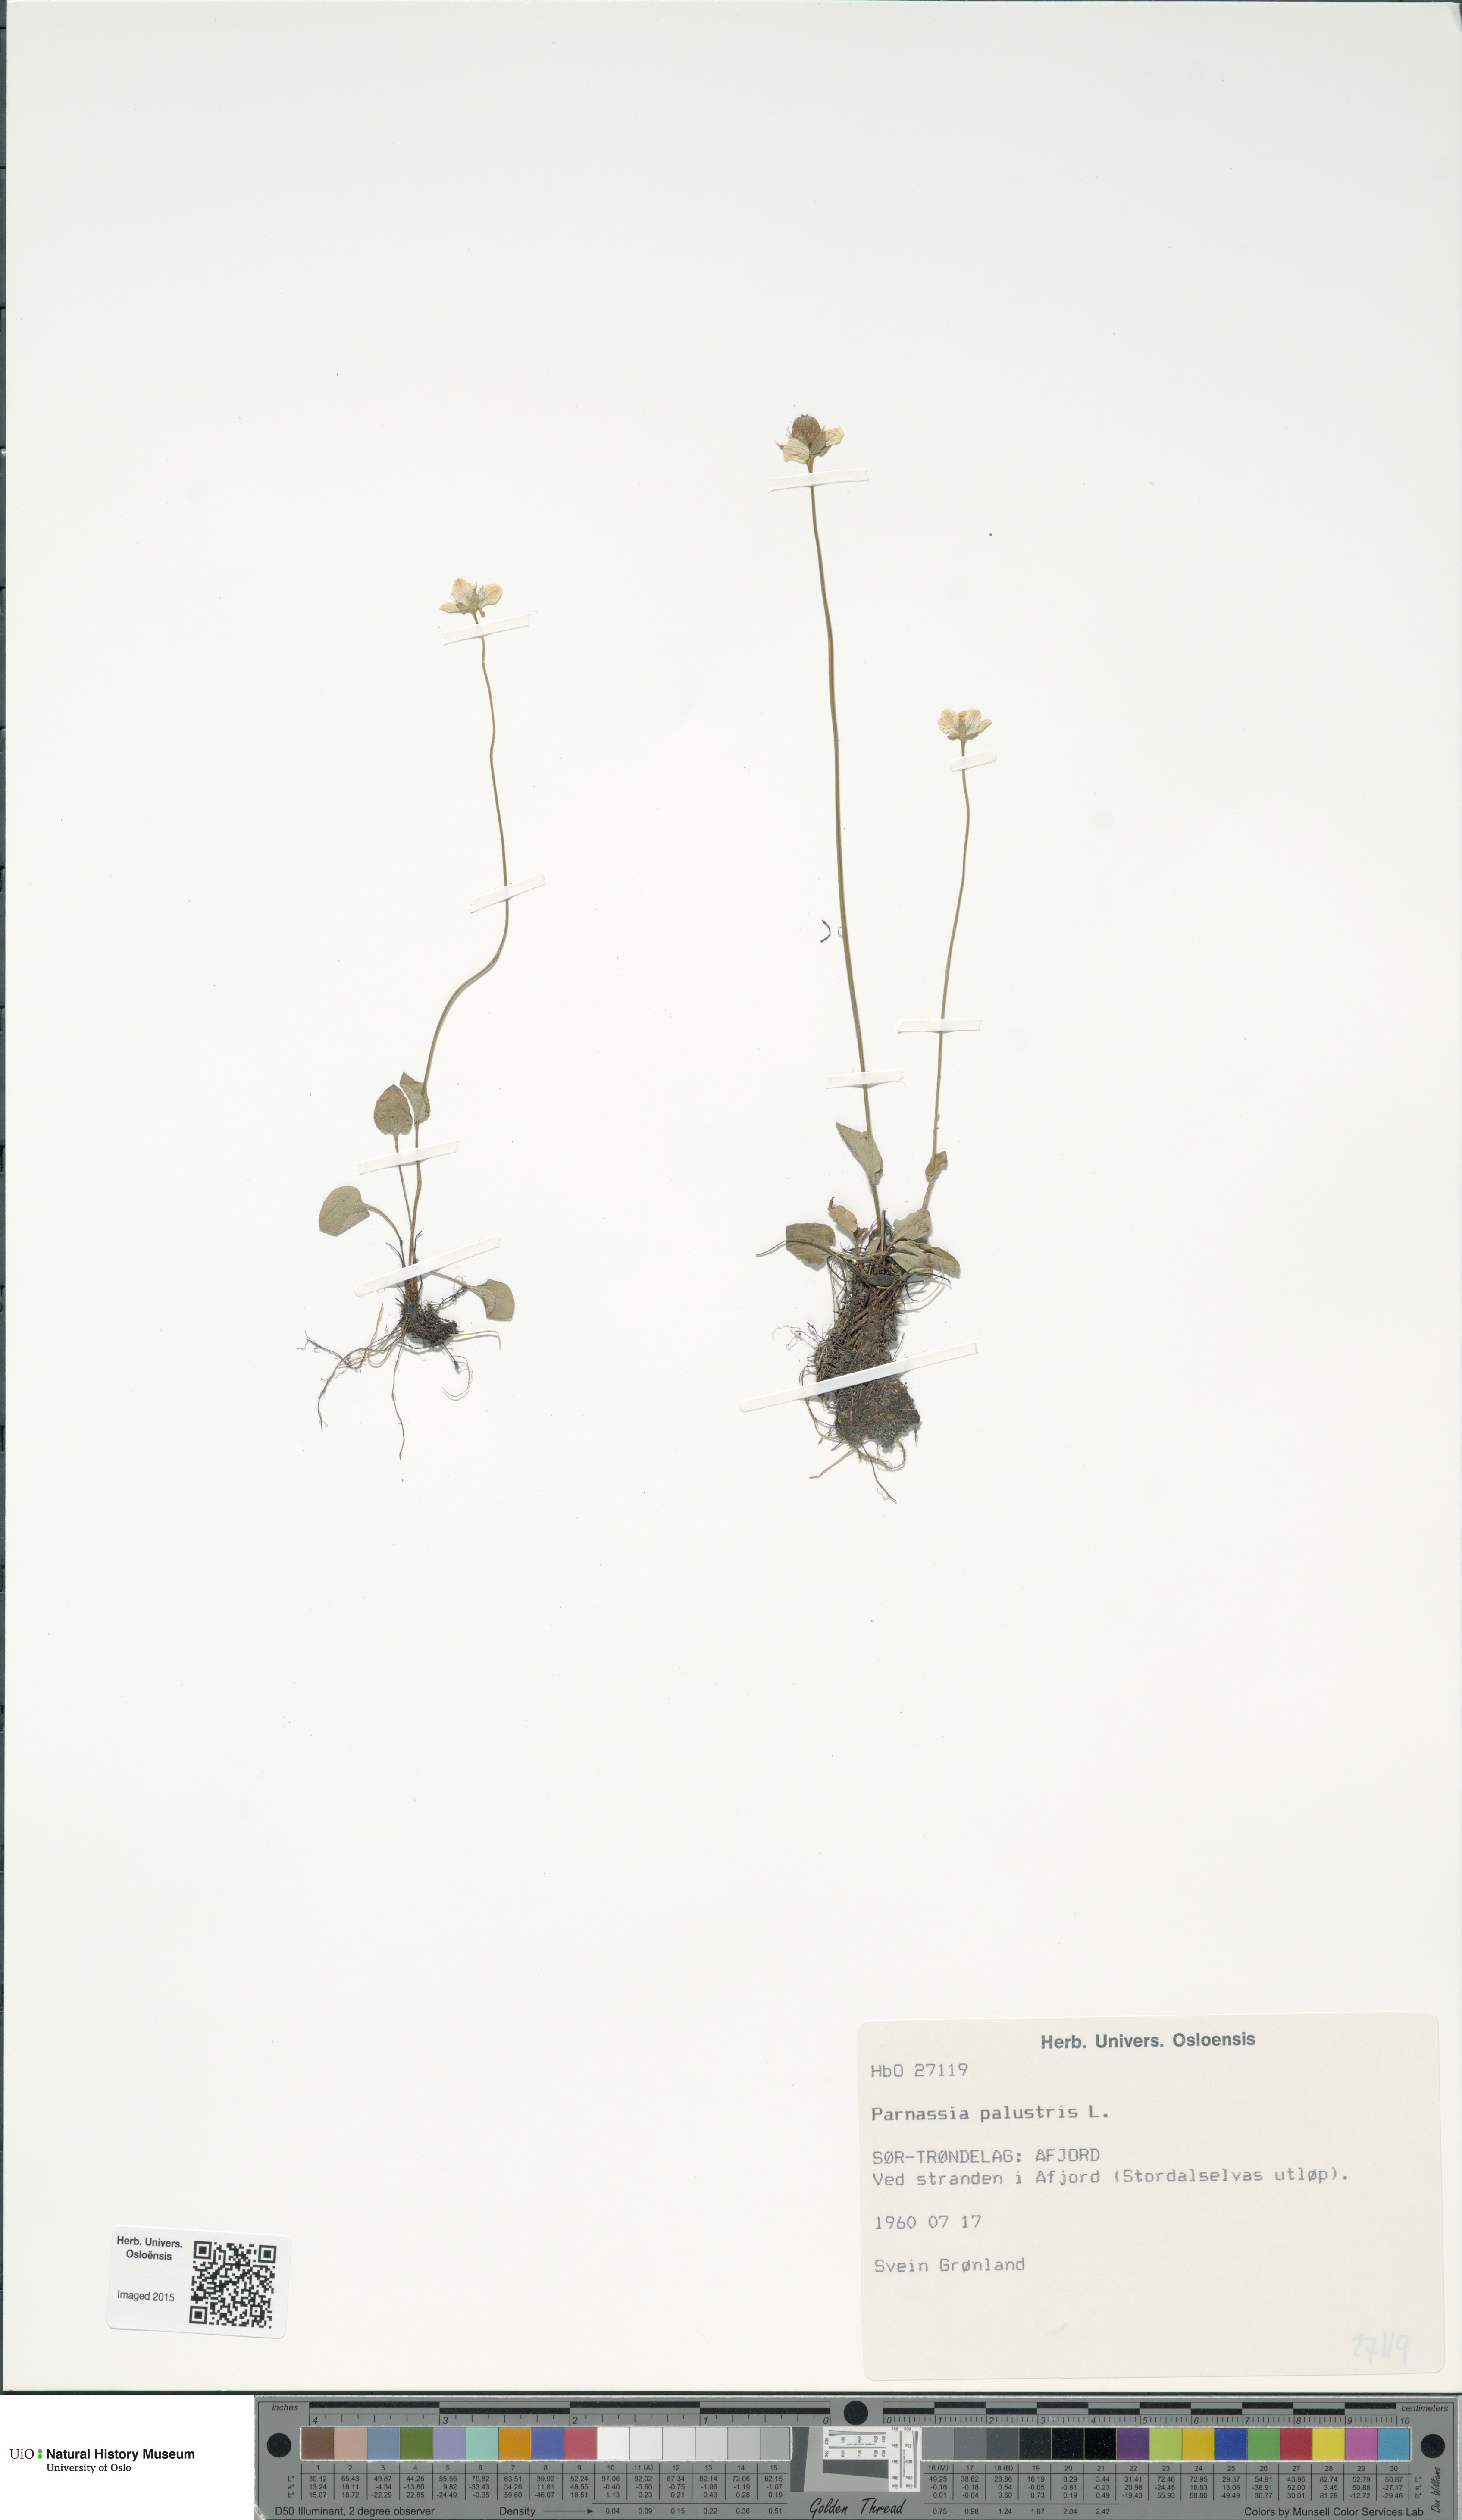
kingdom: Plantae
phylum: Tracheophyta
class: Magnoliopsida
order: Celastrales
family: Parnassiaceae
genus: Parnassia
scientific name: Parnassia palustris
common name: Grass-of-parnassus
